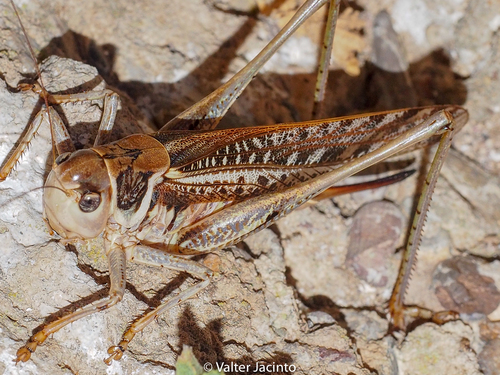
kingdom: Animalia
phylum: Arthropoda
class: Insecta
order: Orthoptera
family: Tettigoniidae
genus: Decticus
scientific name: Decticus albifrons
